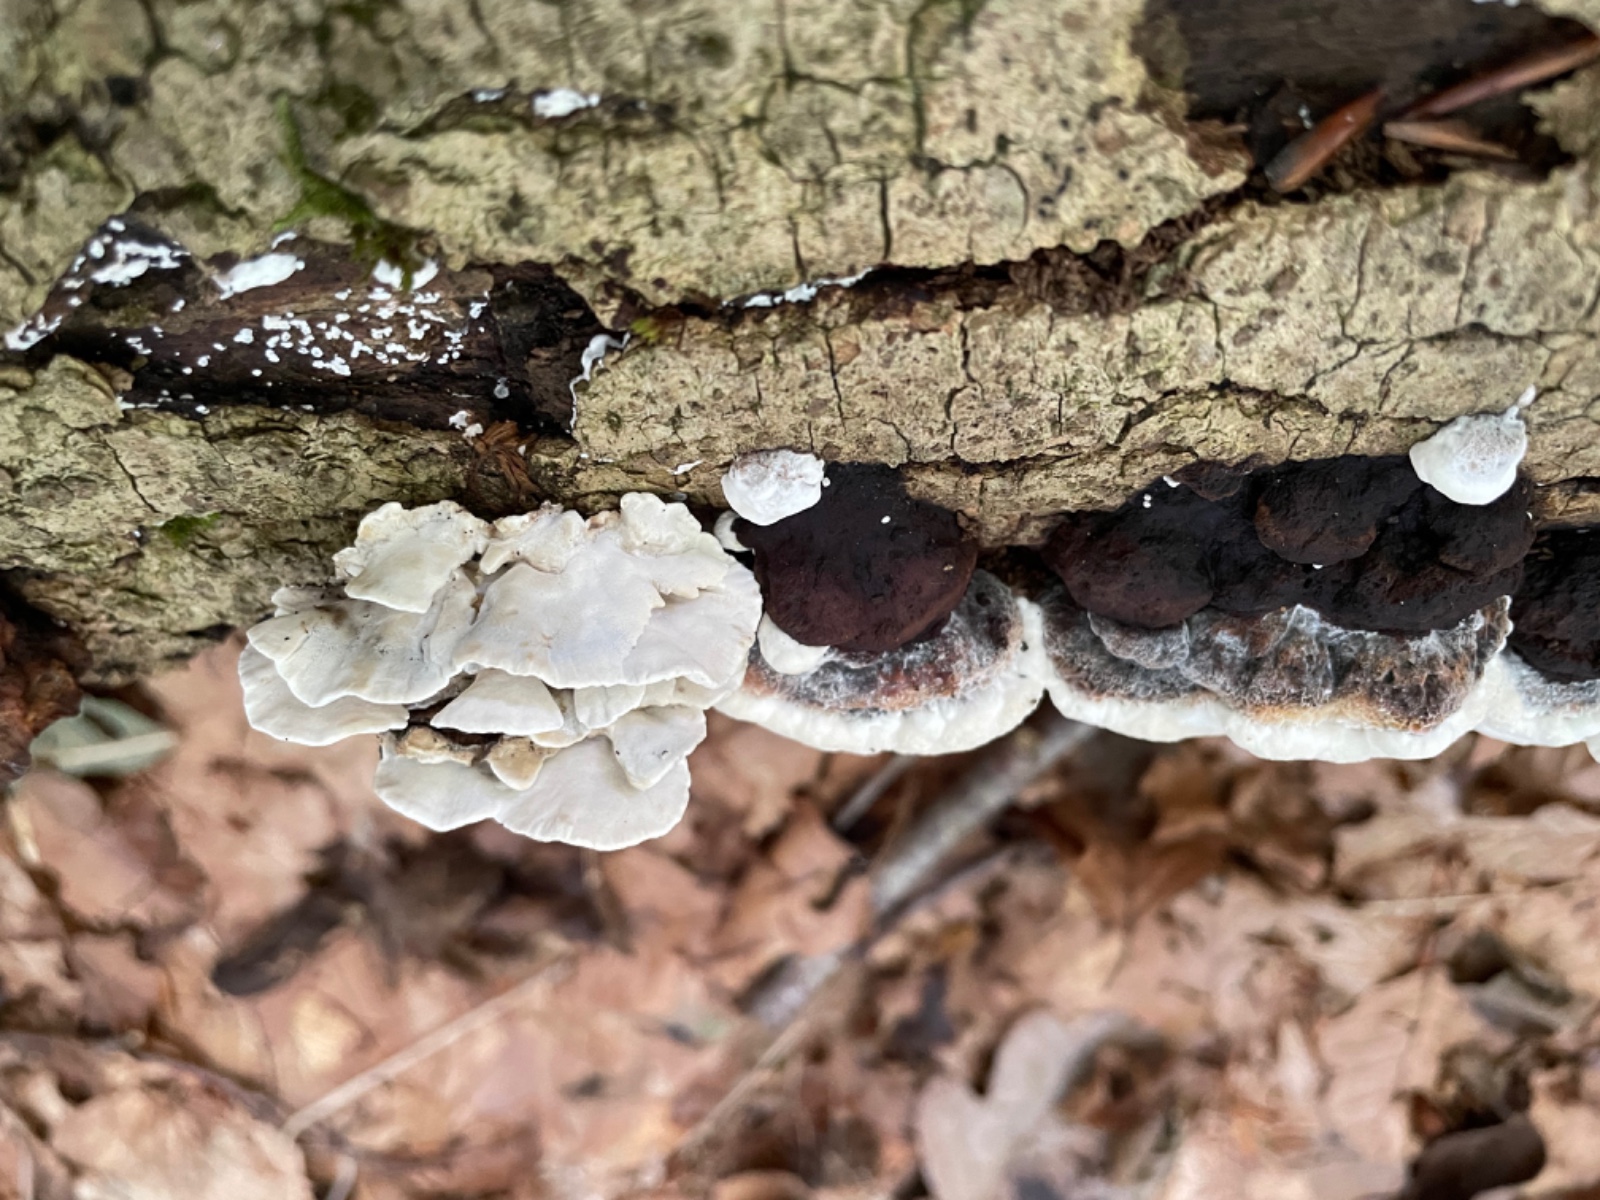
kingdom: Fungi
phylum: Basidiomycota
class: Agaricomycetes
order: Polyporales
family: Incrustoporiaceae
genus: Skeletocutis
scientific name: Skeletocutis nemoralis
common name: stor krystalporesvamp
